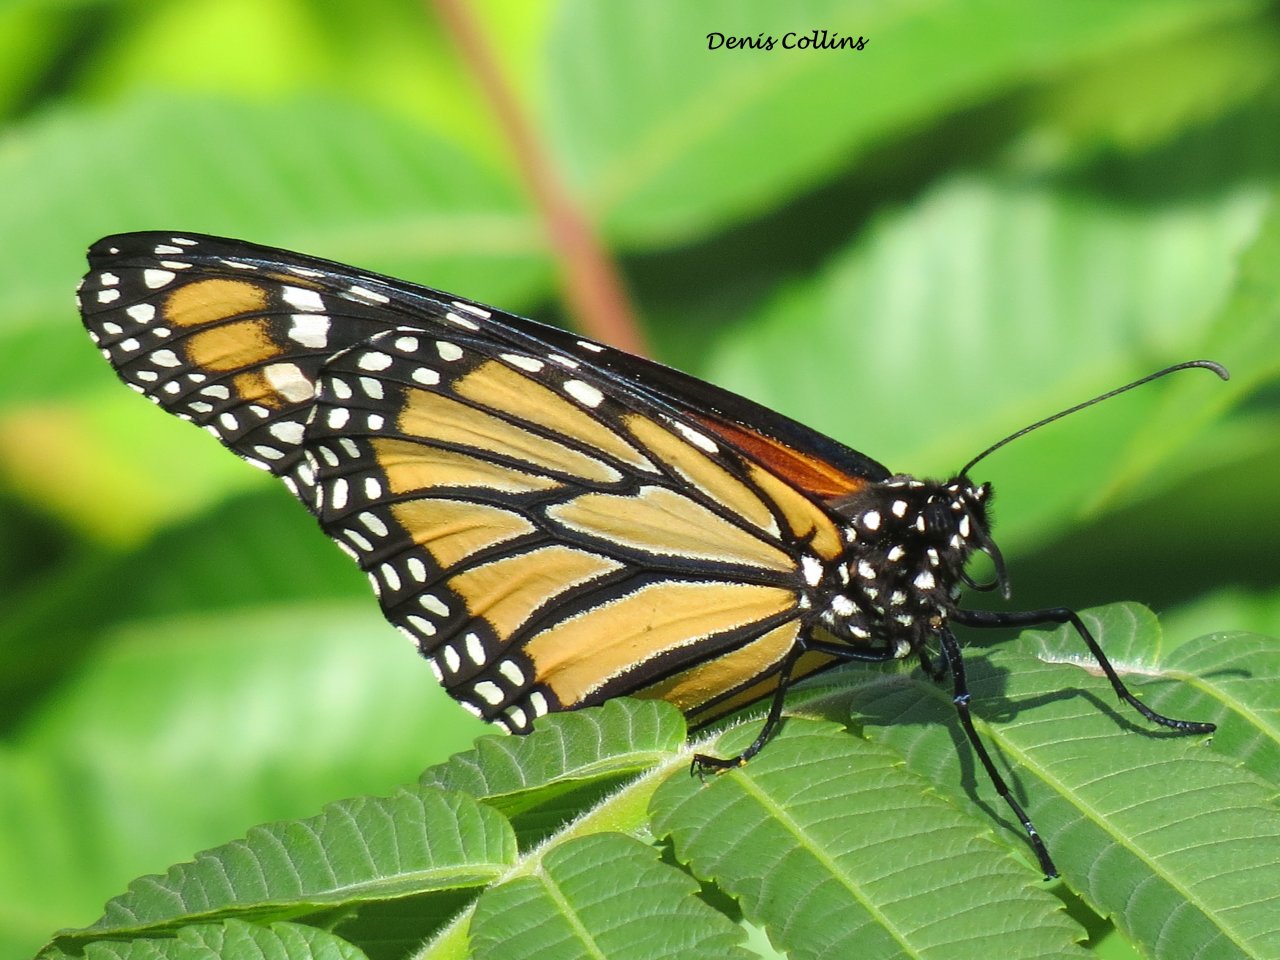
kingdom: Animalia
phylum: Arthropoda
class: Insecta
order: Lepidoptera
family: Nymphalidae
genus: Danaus
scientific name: Danaus plexippus
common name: Monarch
